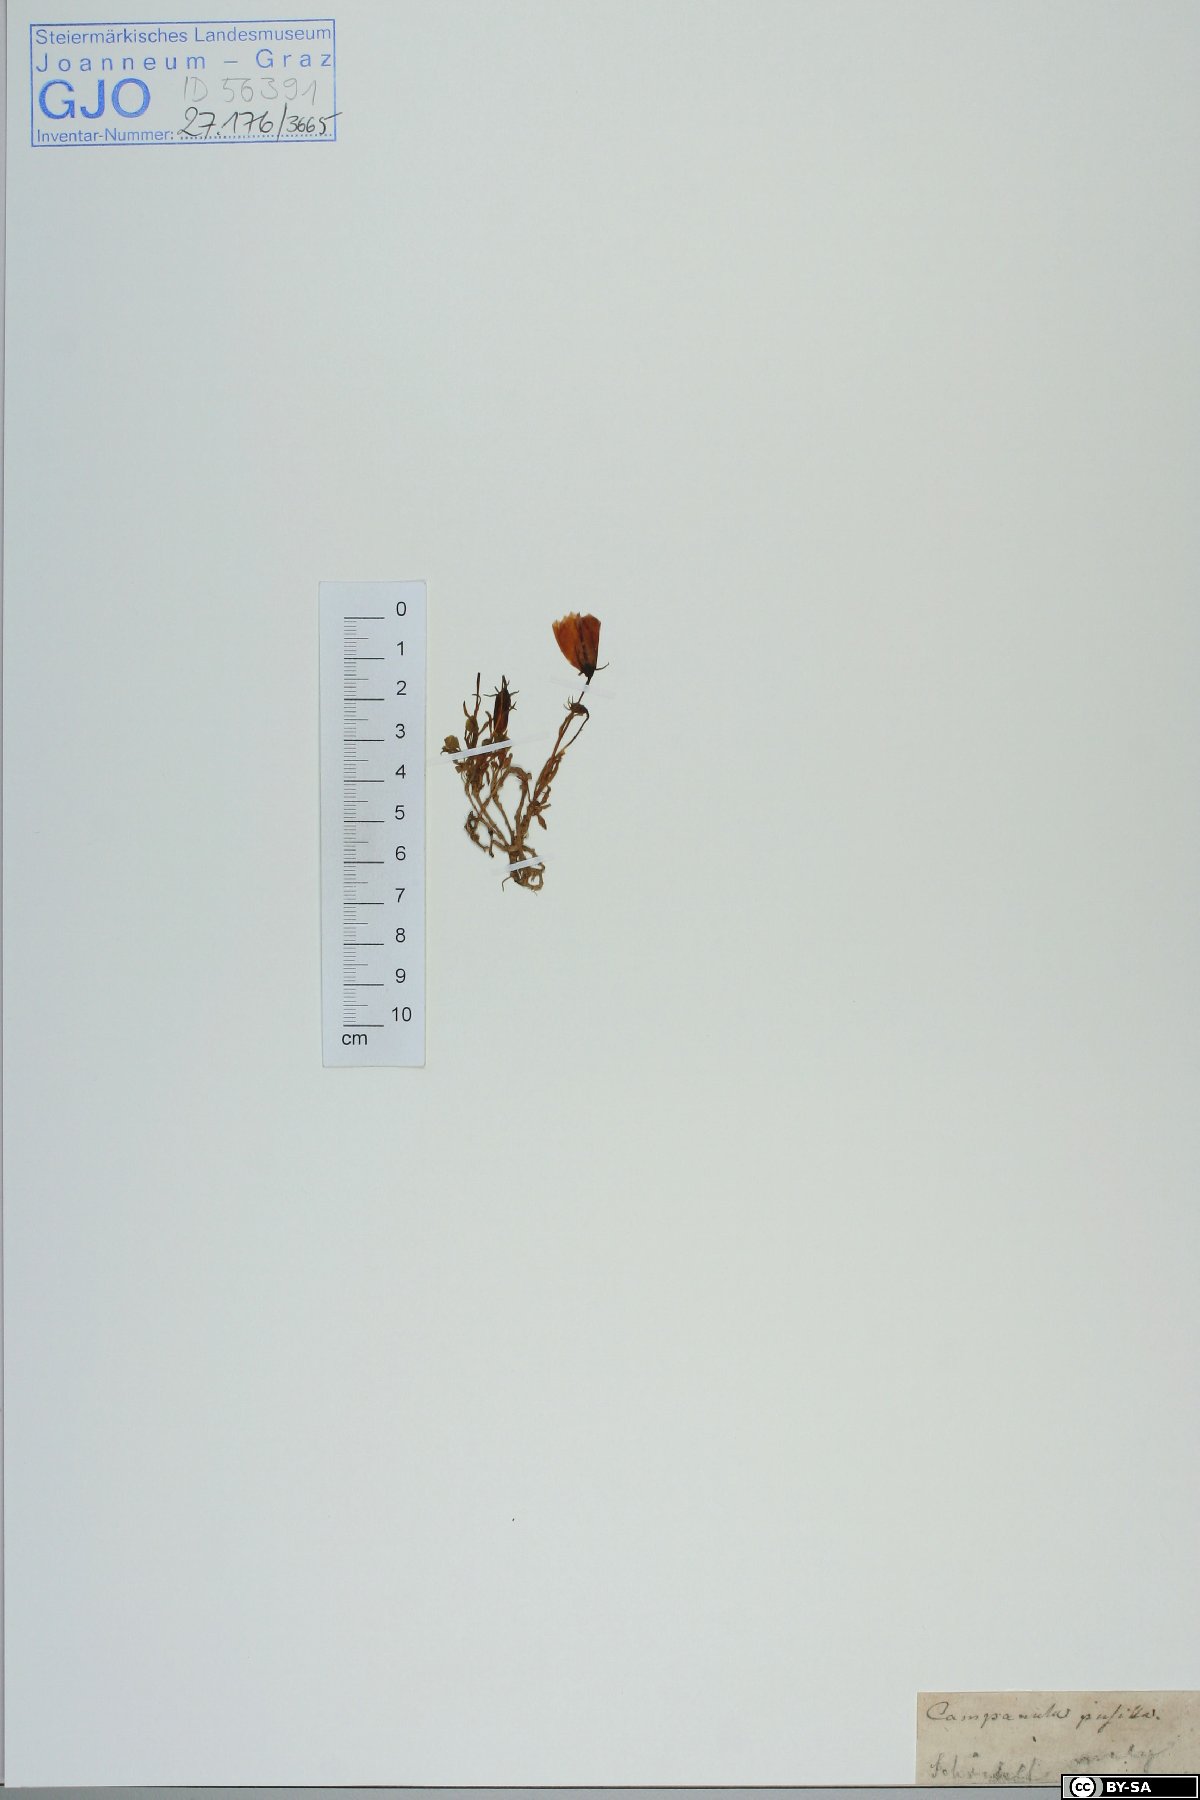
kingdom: Plantae
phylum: Tracheophyta
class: Magnoliopsida
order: Asterales
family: Campanulaceae
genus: Campanula
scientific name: Campanula cochleariifolia
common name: Fairies'-thimbles
